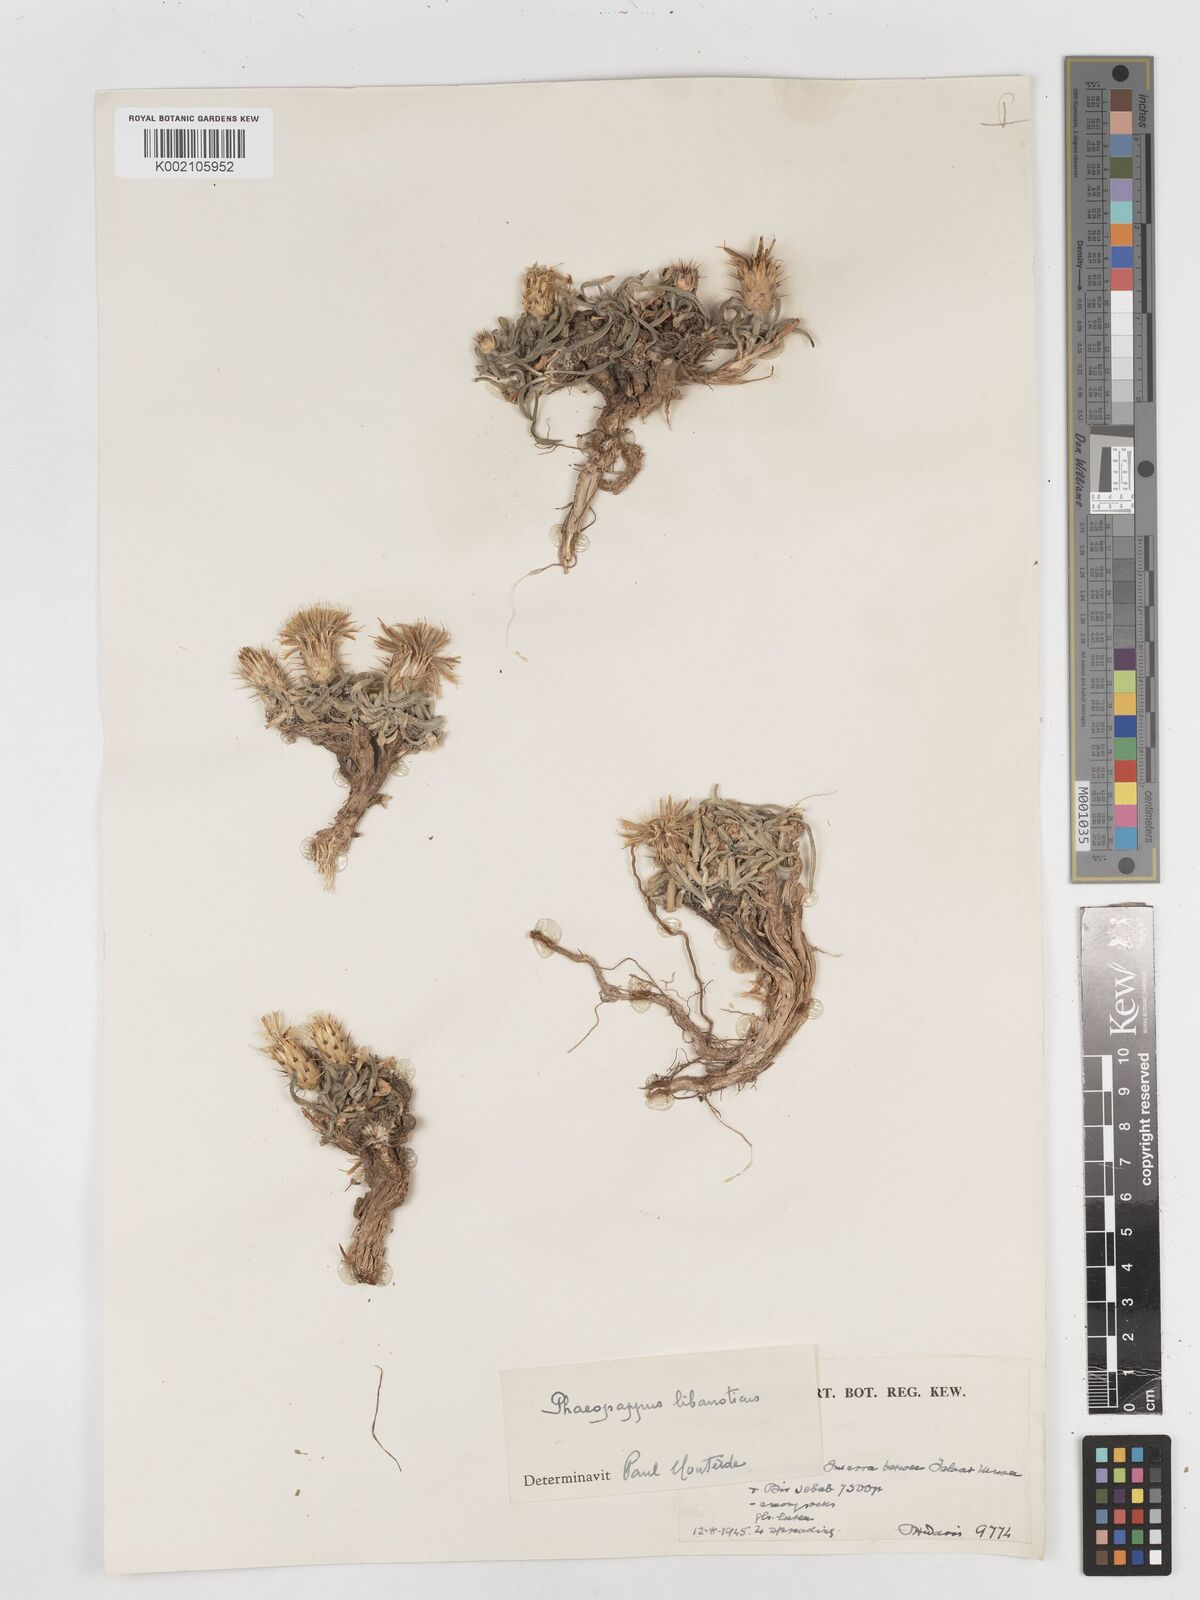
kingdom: Plantae
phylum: Tracheophyta
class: Magnoliopsida
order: Asterales
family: Asteraceae
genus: Centaurea
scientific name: Centaurea
